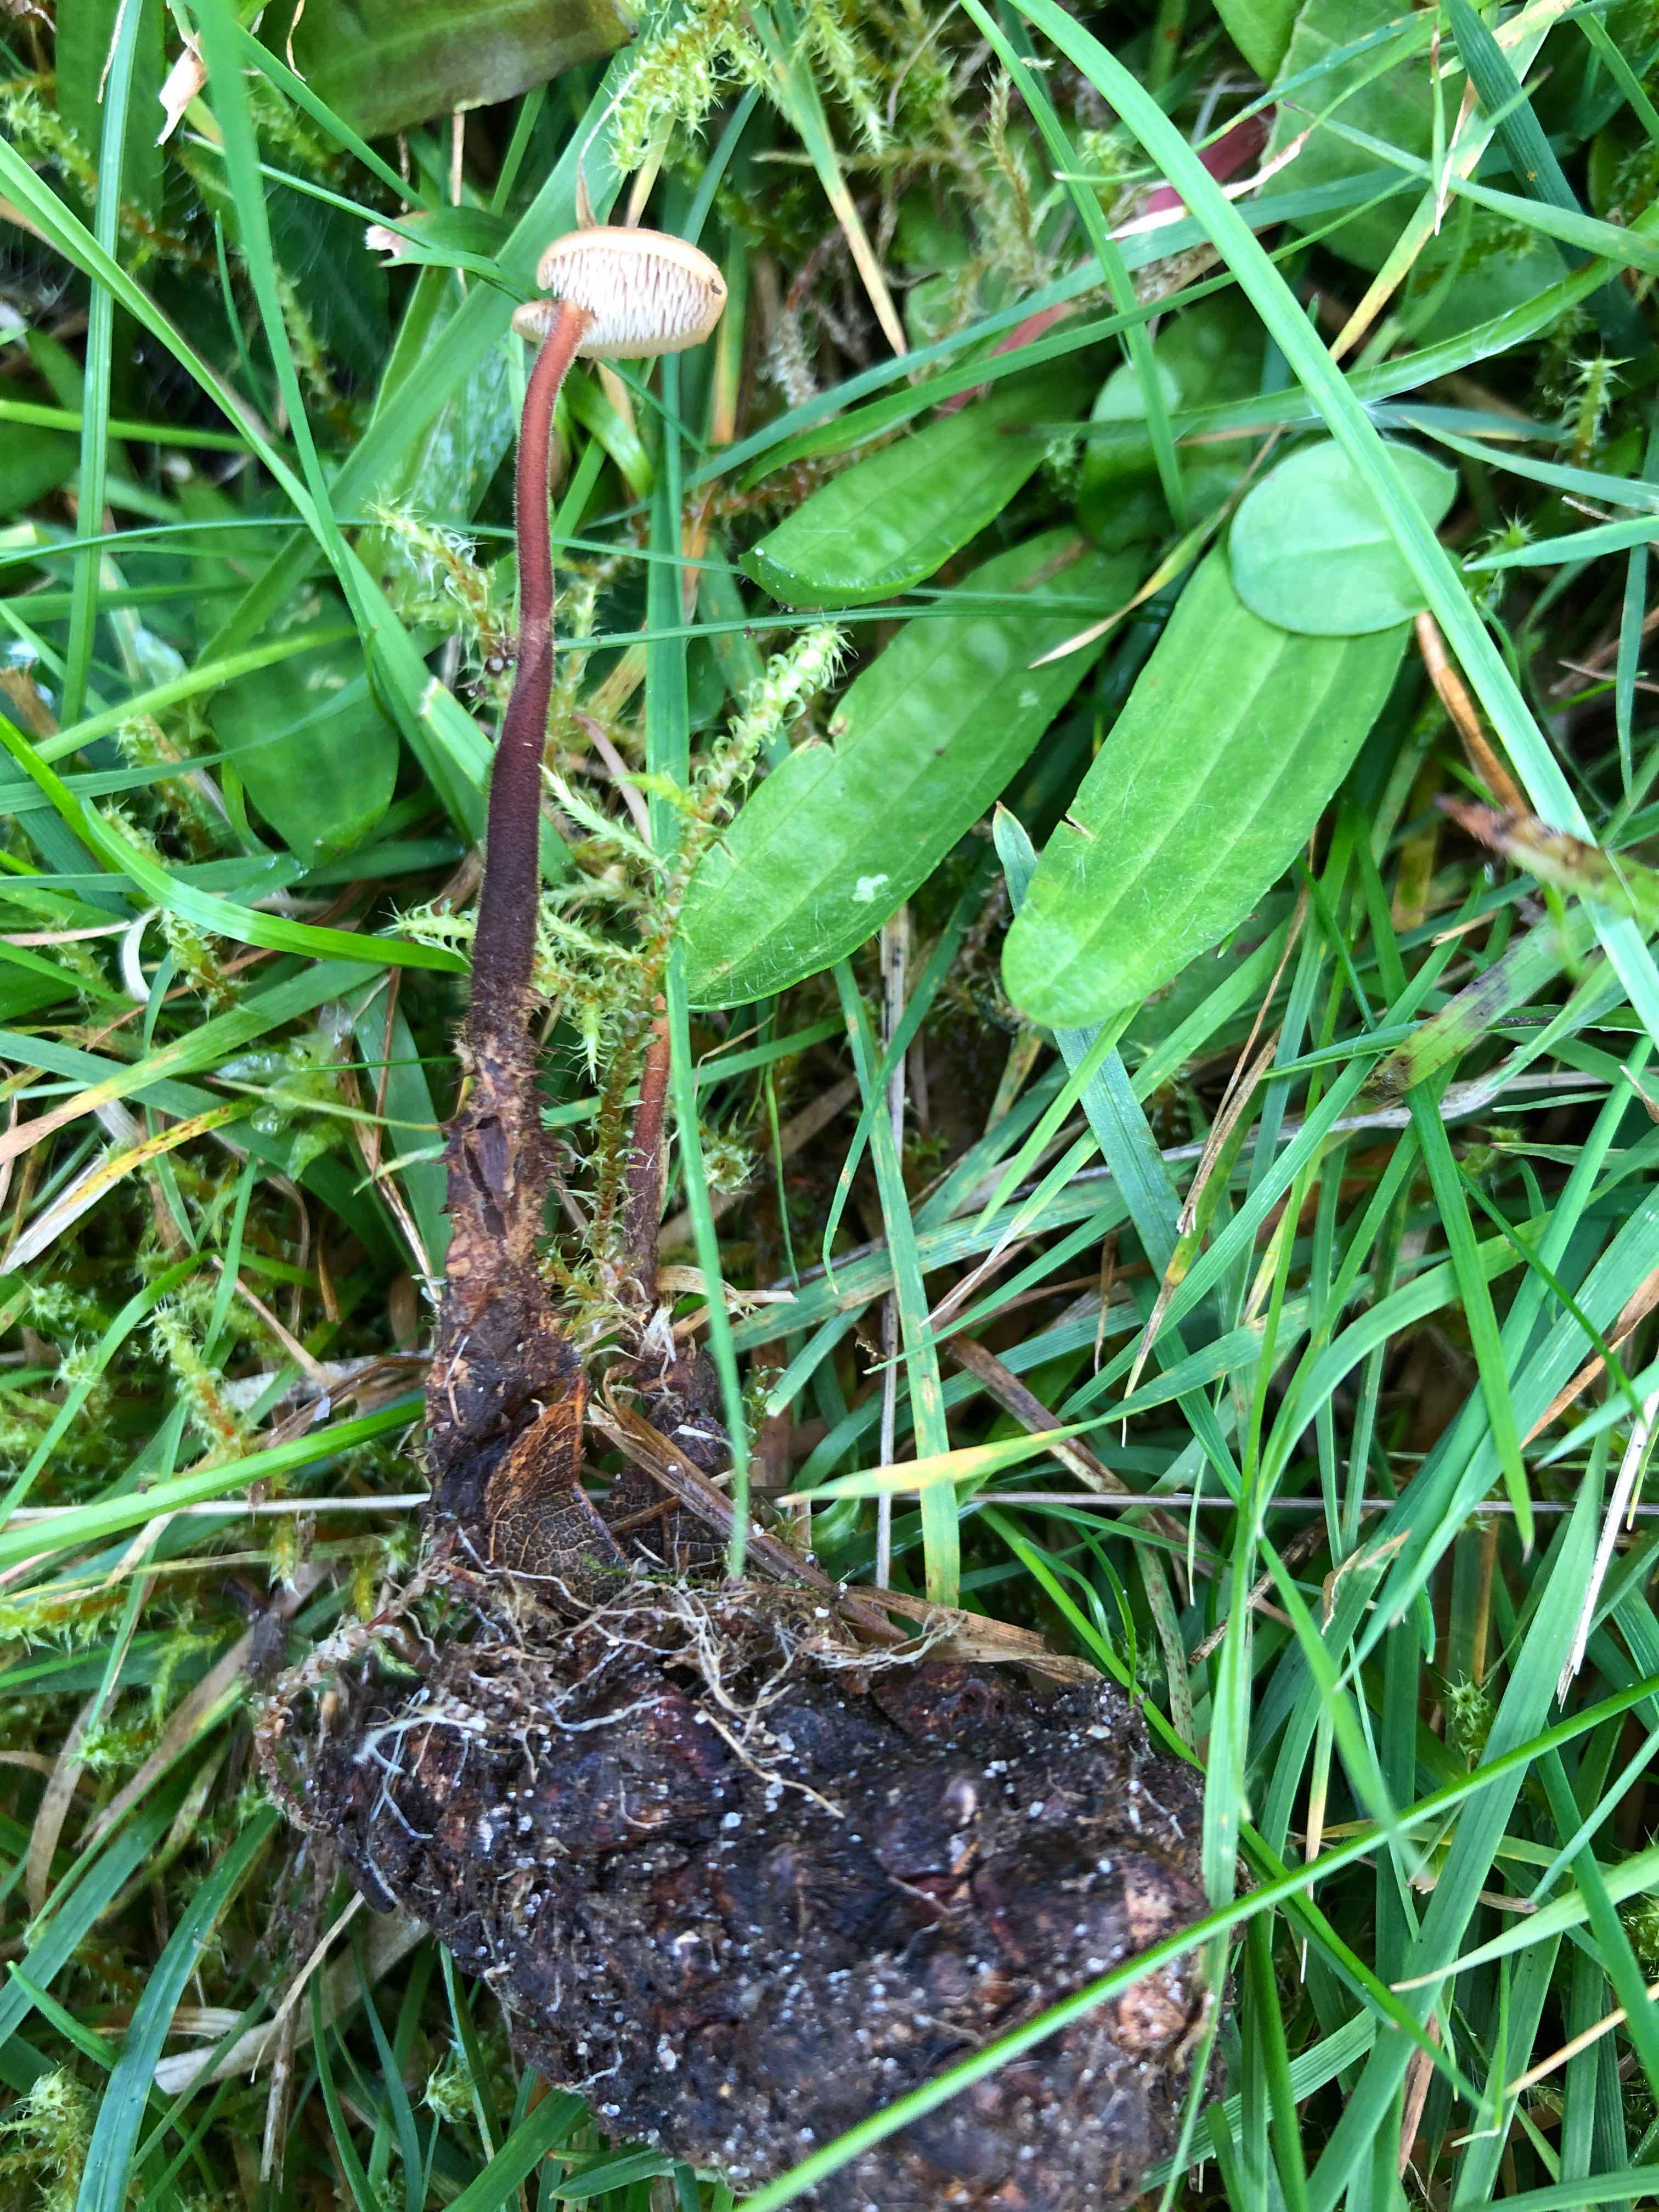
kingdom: Fungi
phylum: Basidiomycota
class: Agaricomycetes
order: Russulales
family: Auriscalpiaceae
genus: Auriscalpium
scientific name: Auriscalpium vulgare
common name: koglepigsvamp
